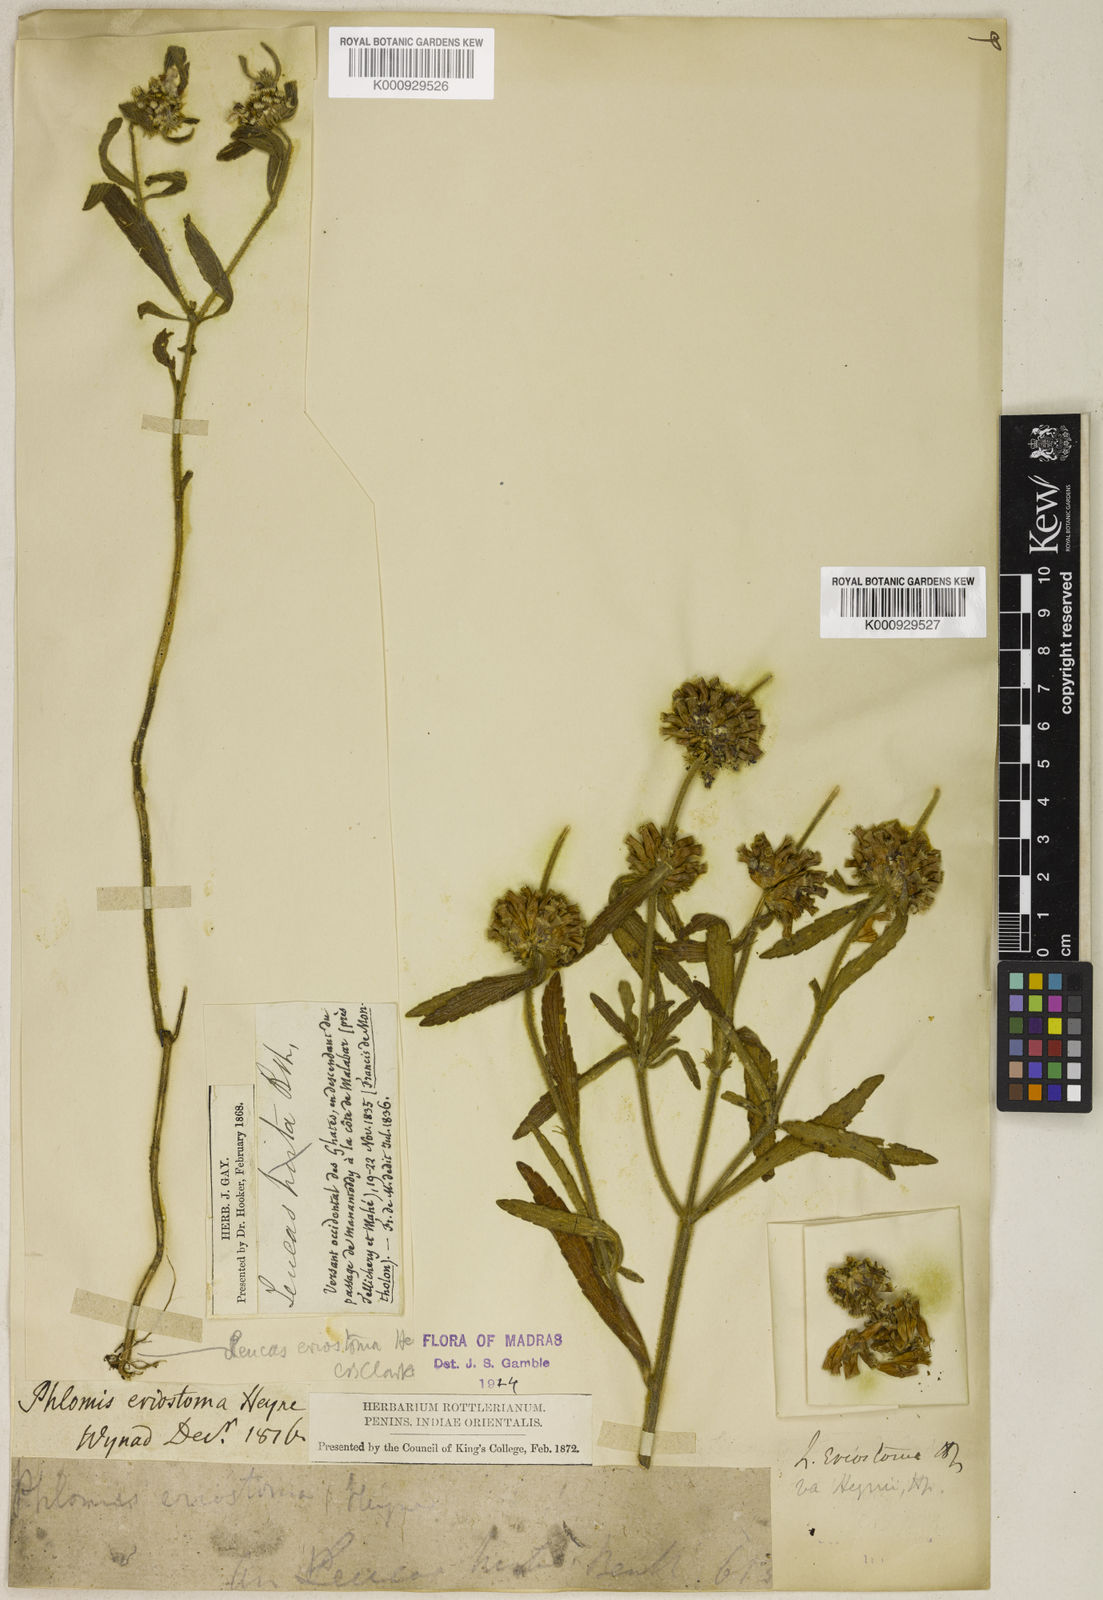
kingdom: Plantae
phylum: Tracheophyta
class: Magnoliopsida
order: Lamiales
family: Lamiaceae
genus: Leucas
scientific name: Leucas eriostoma
